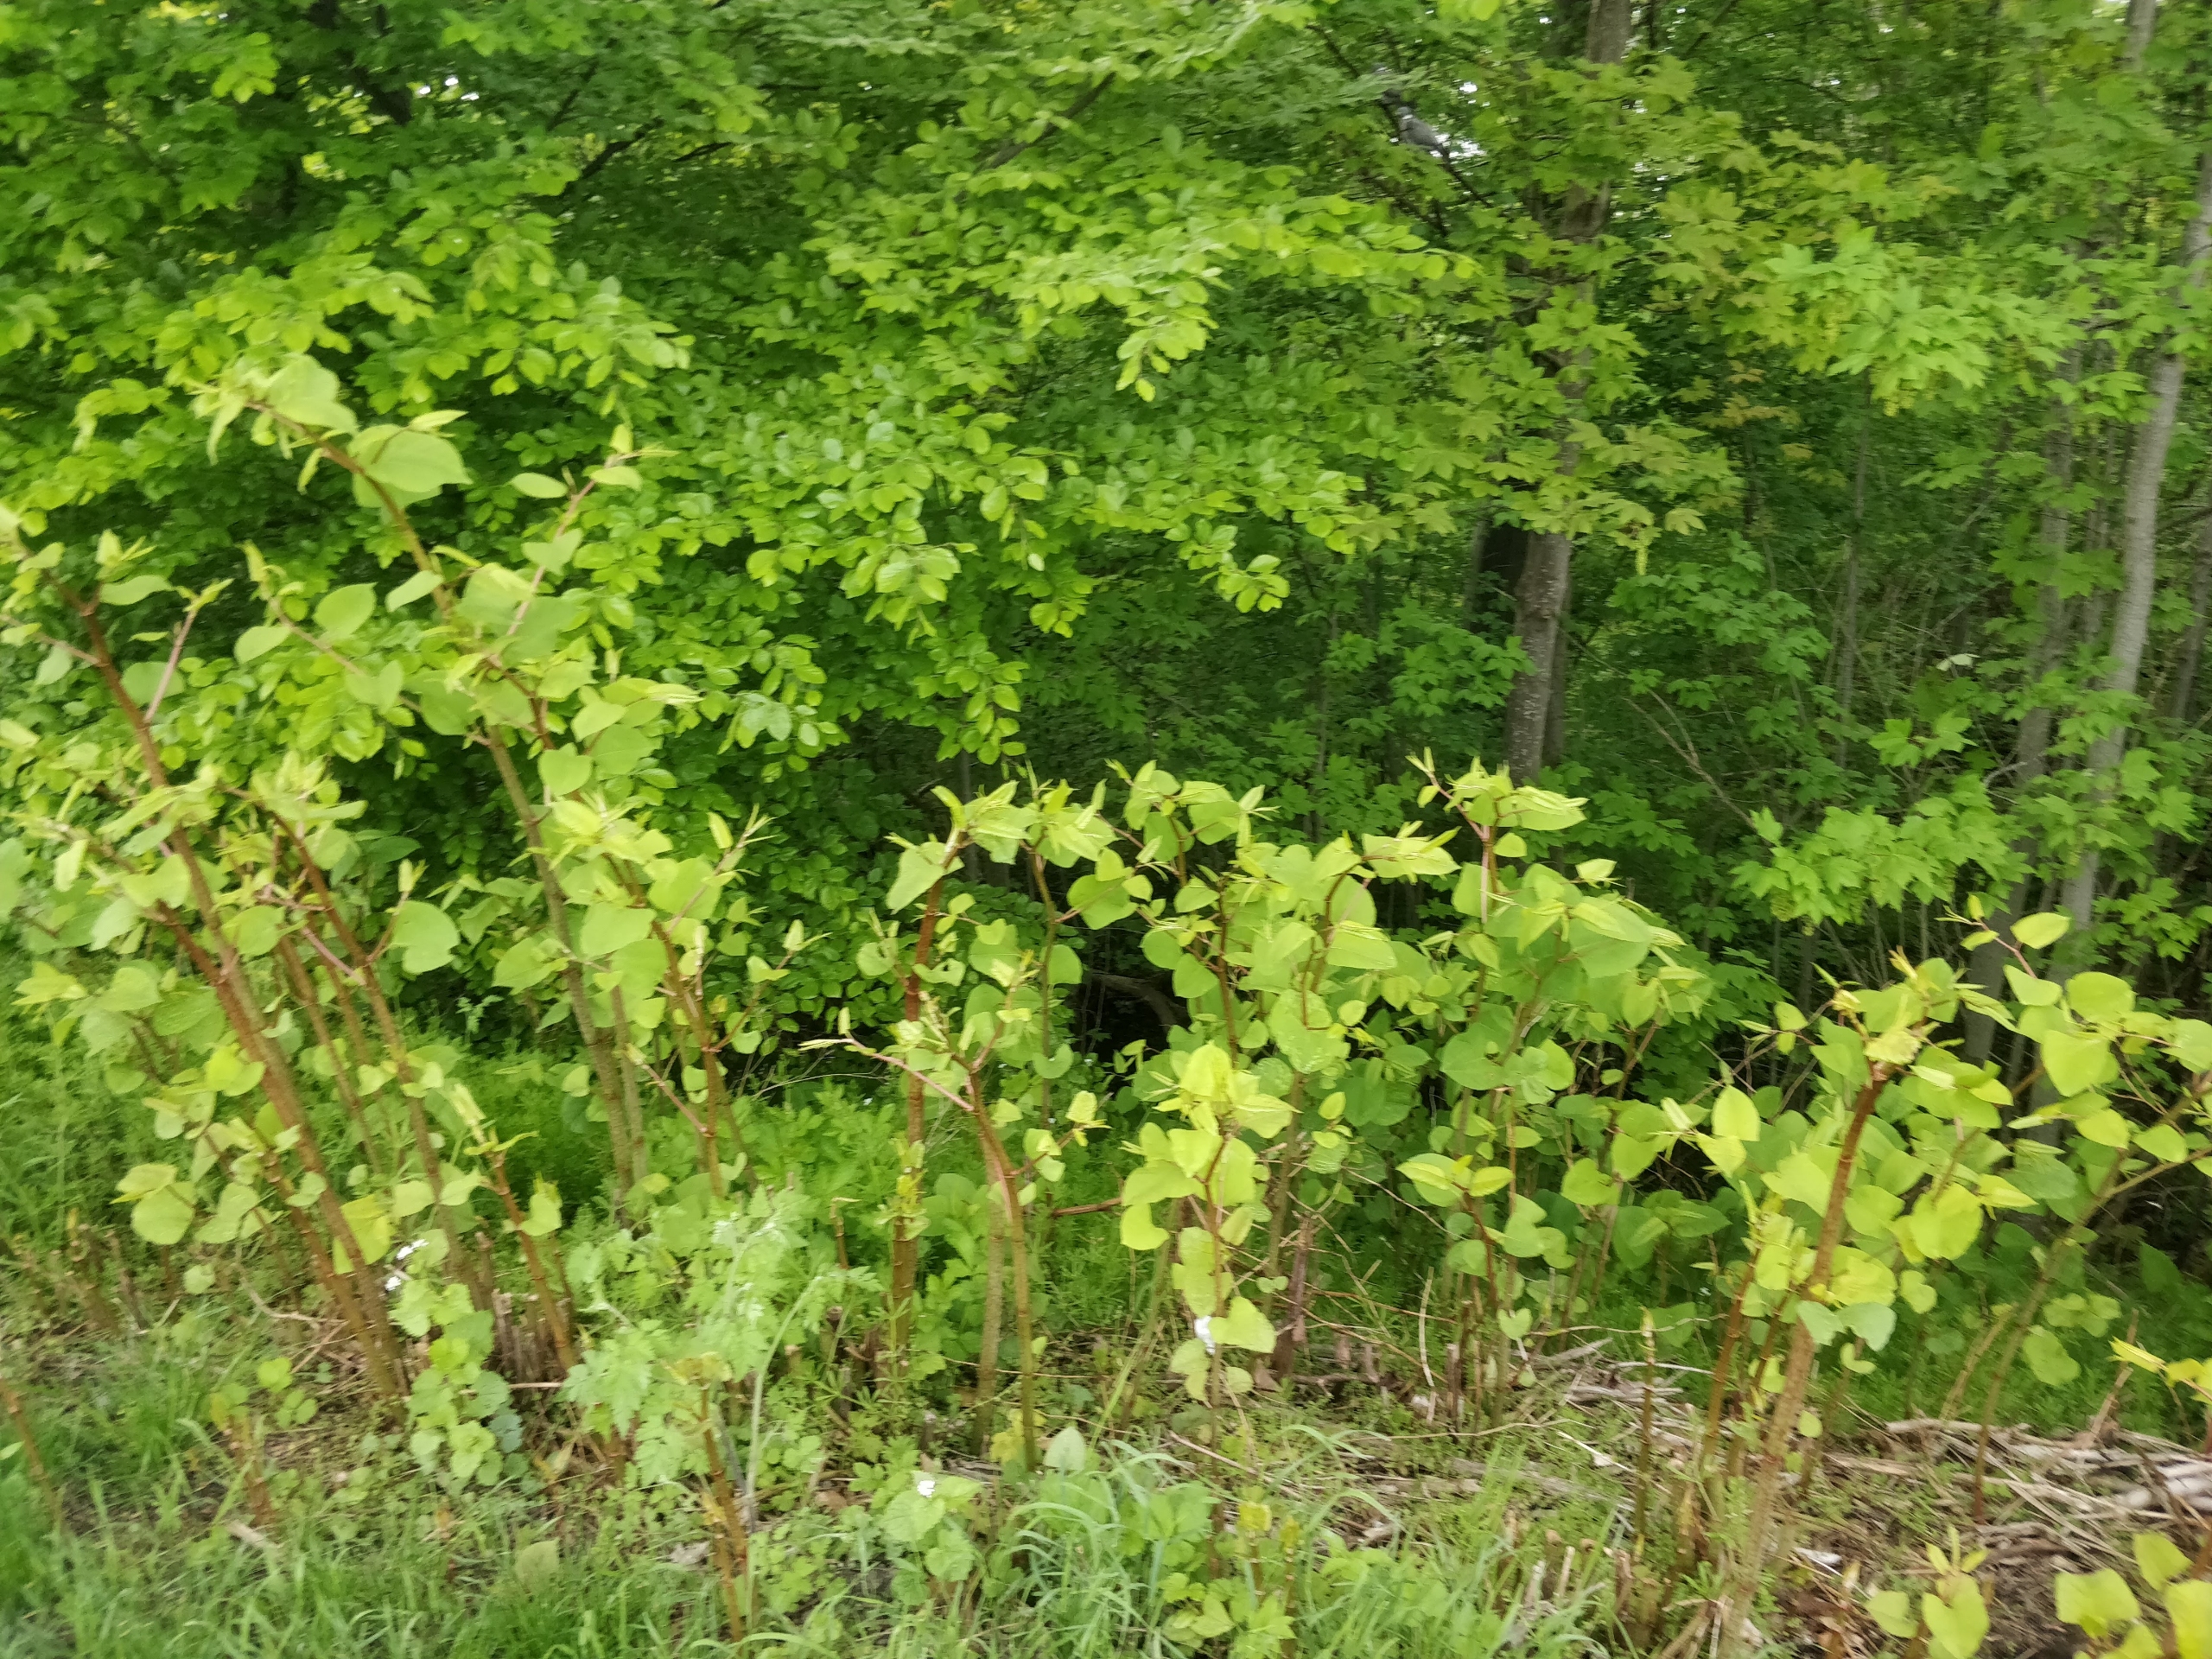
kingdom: Plantae
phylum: Tracheophyta
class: Magnoliopsida
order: Caryophyllales
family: Polygonaceae
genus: Reynoutria
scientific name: Reynoutria japonica
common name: Japan-pileurt
